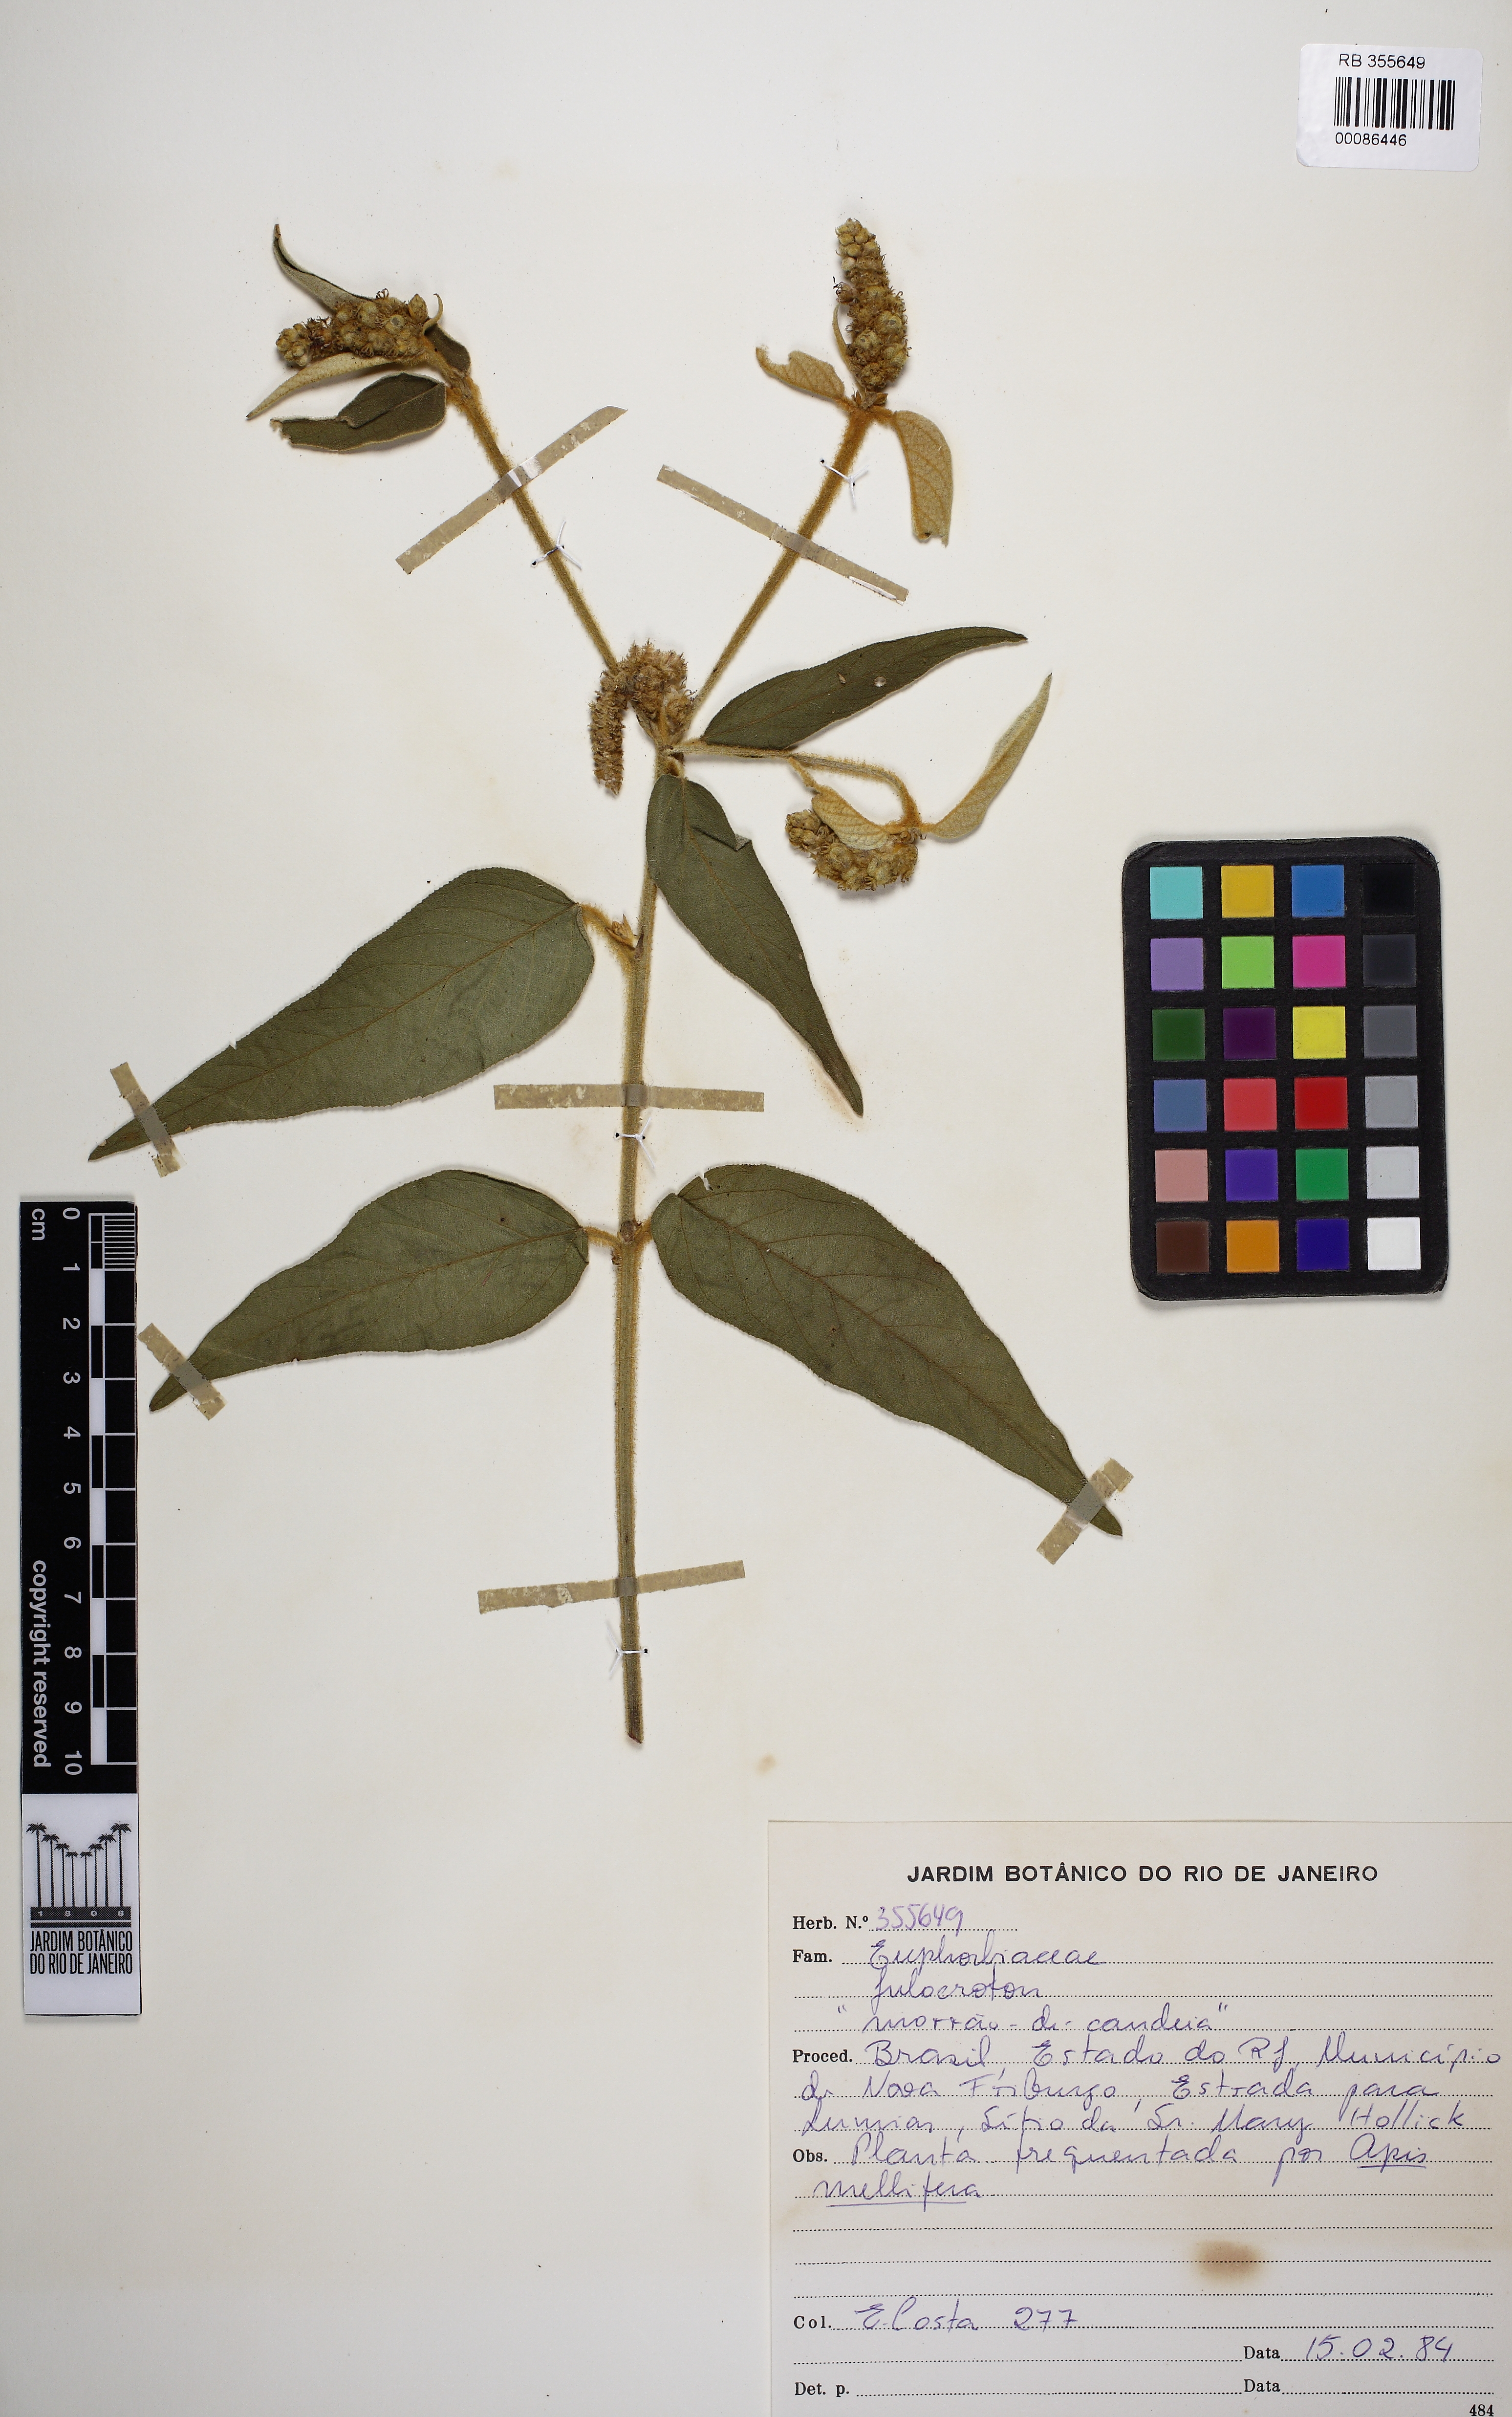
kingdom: Plantae
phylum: Tracheophyta
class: Magnoliopsida
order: Malpighiales
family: Euphorbiaceae
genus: Croton
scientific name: Croton gnaphaloides
